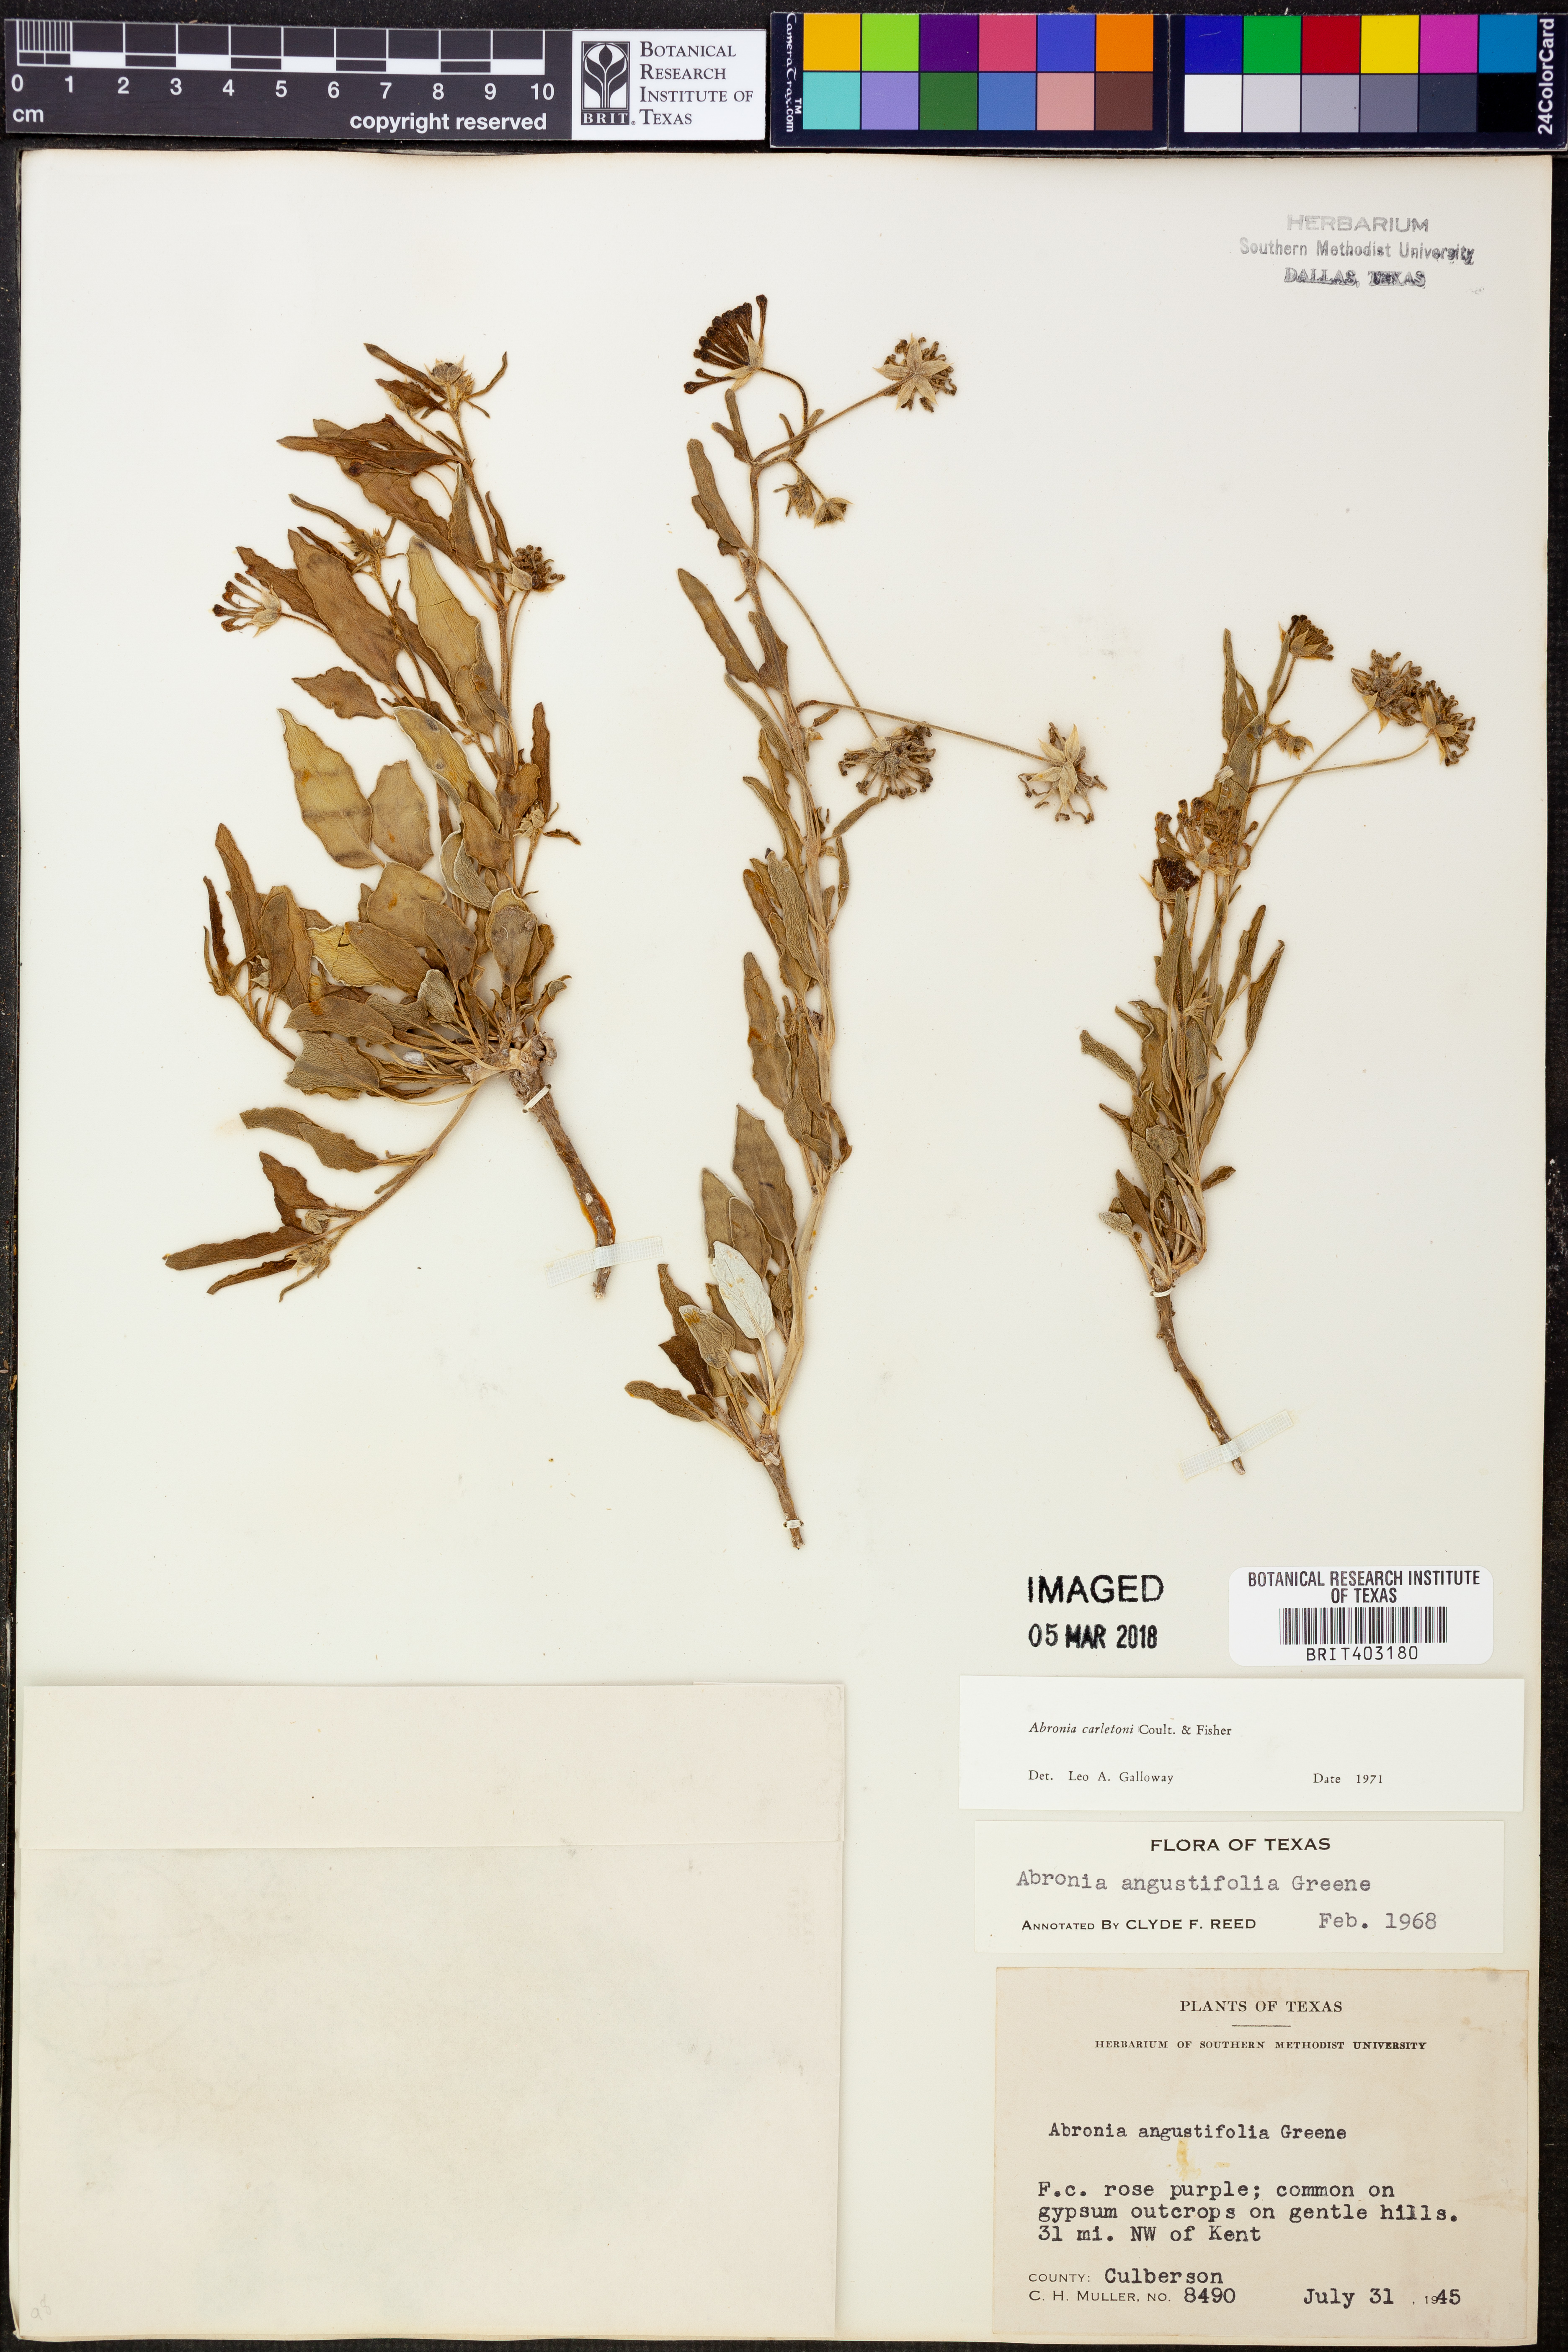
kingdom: Plantae
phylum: Tracheophyta
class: Magnoliopsida
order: Caryophyllales
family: Nyctaginaceae
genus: Abronia
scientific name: Abronia carletonii
